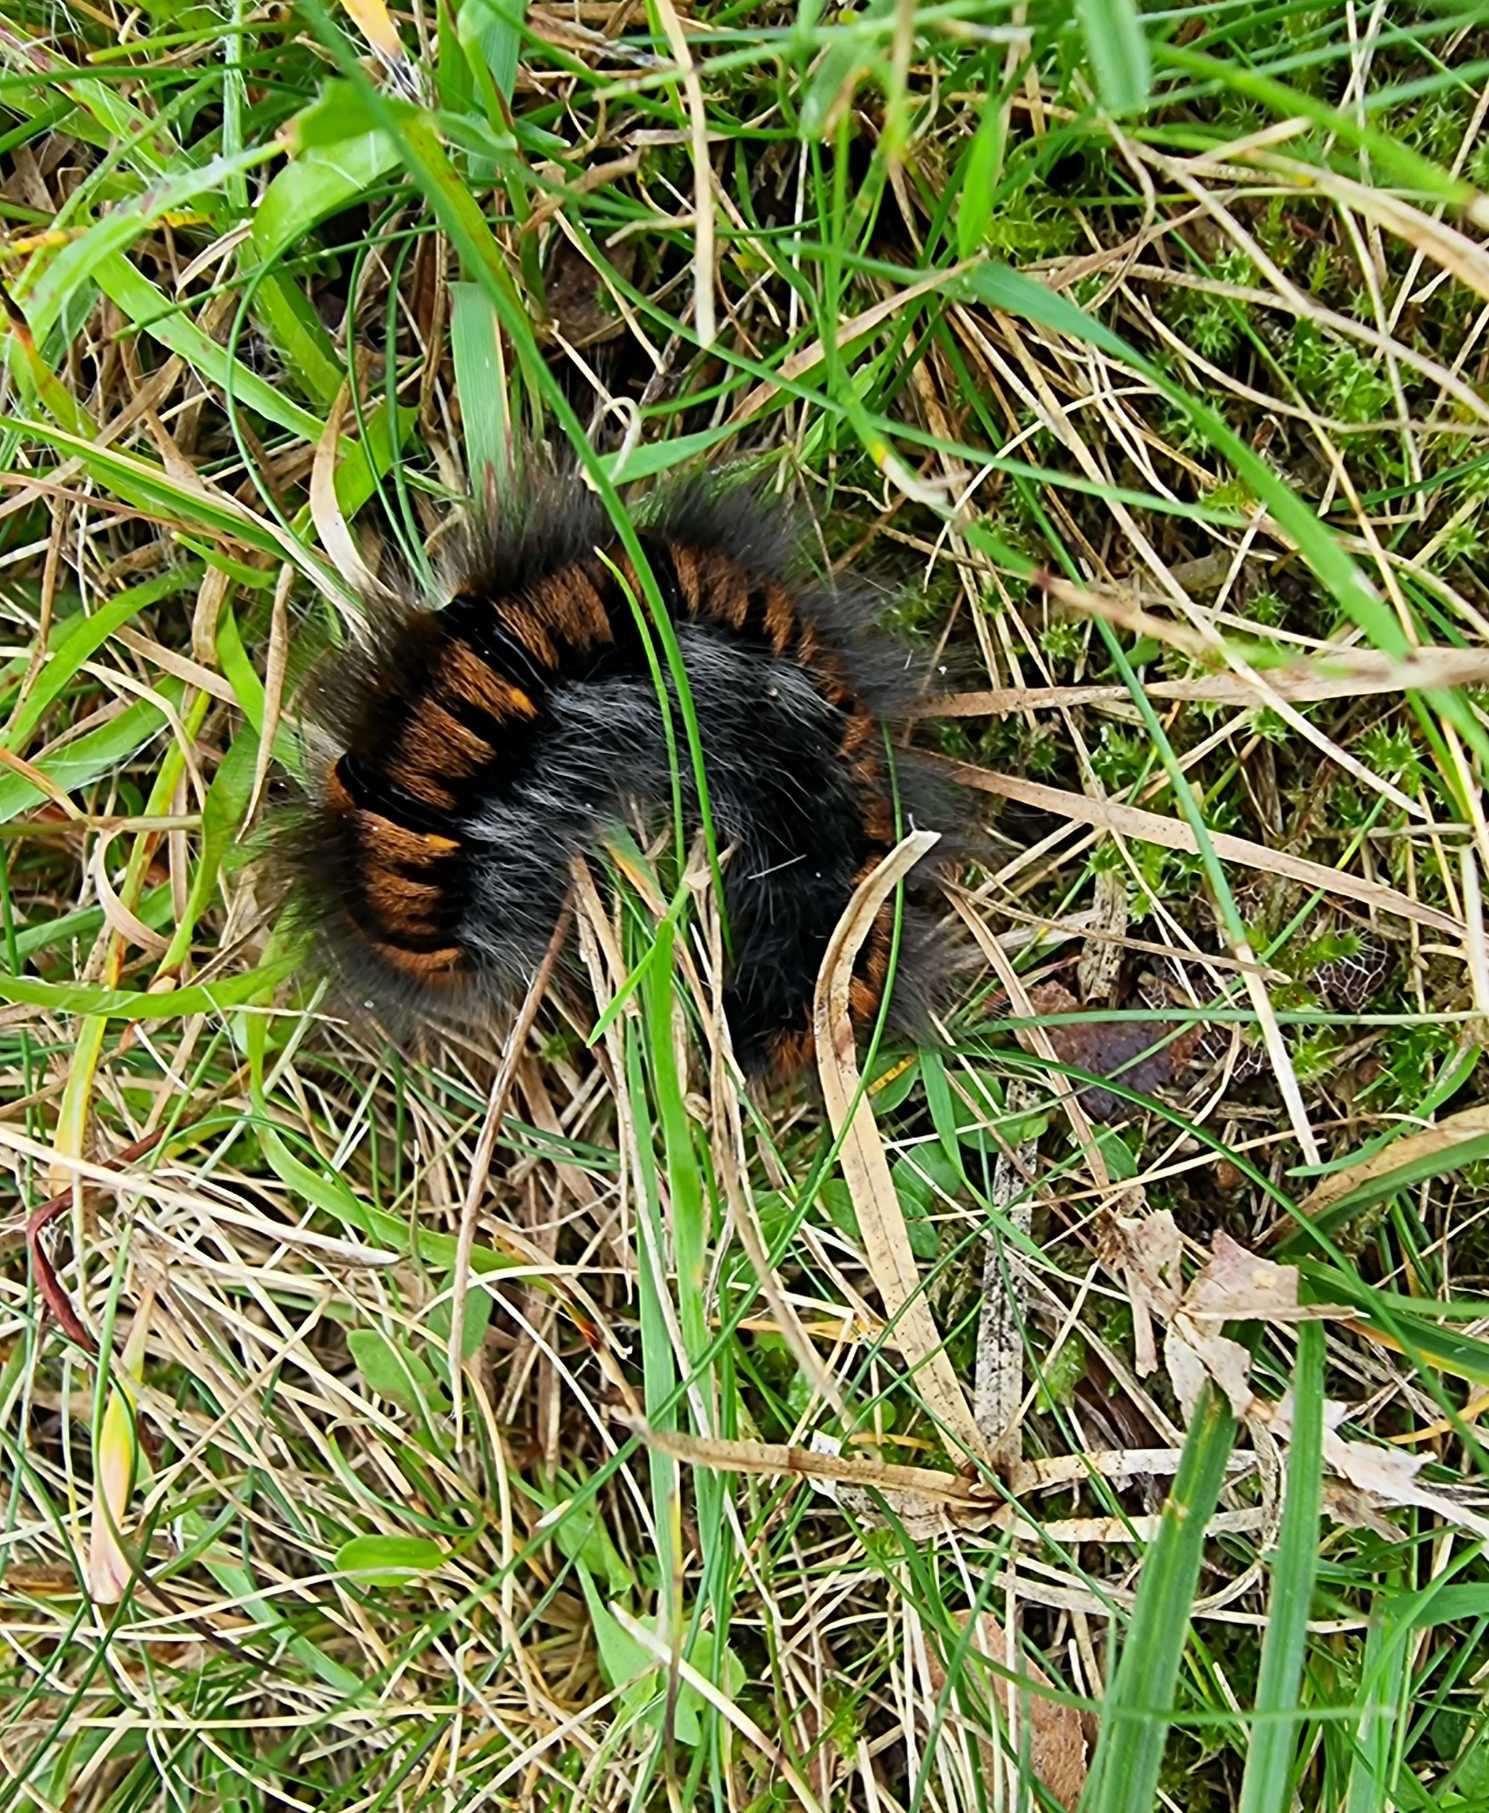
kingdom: Animalia
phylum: Arthropoda
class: Insecta
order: Lepidoptera
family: Lasiocampidae
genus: Macrothylacia
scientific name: Macrothylacia rubi
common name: Brombærspinder
